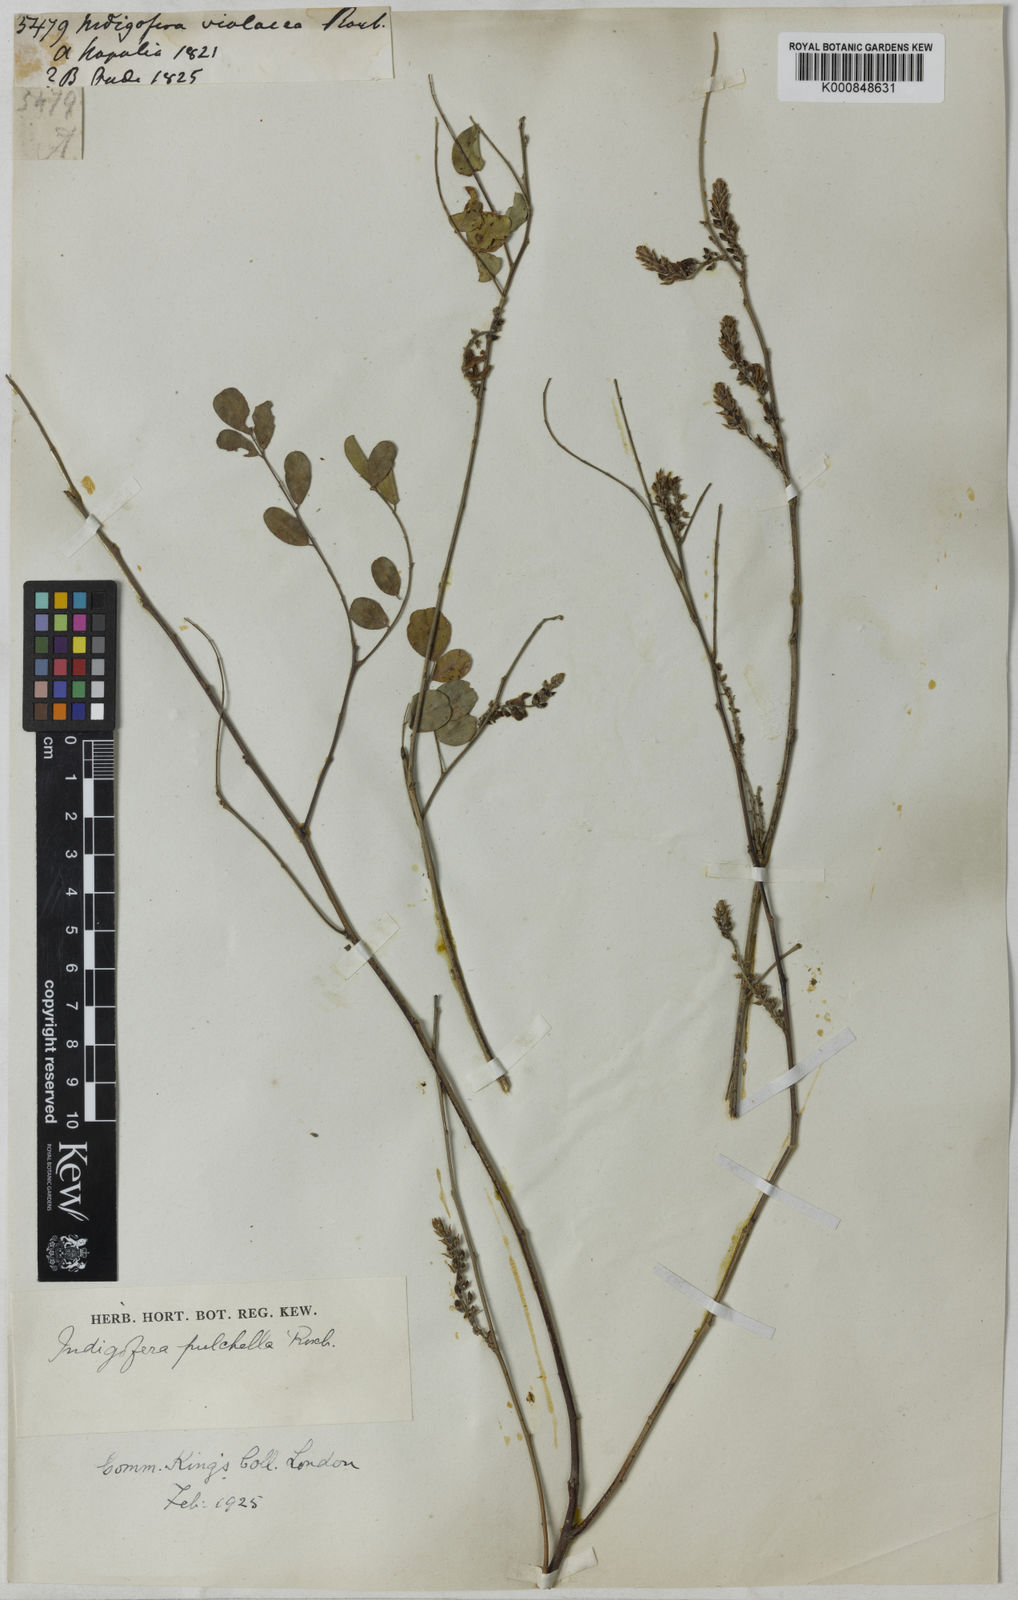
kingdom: Plantae
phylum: Tracheophyta
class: Magnoliopsida
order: Fabales
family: Fabaceae
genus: Indigofera
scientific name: Indigofera cassioides
